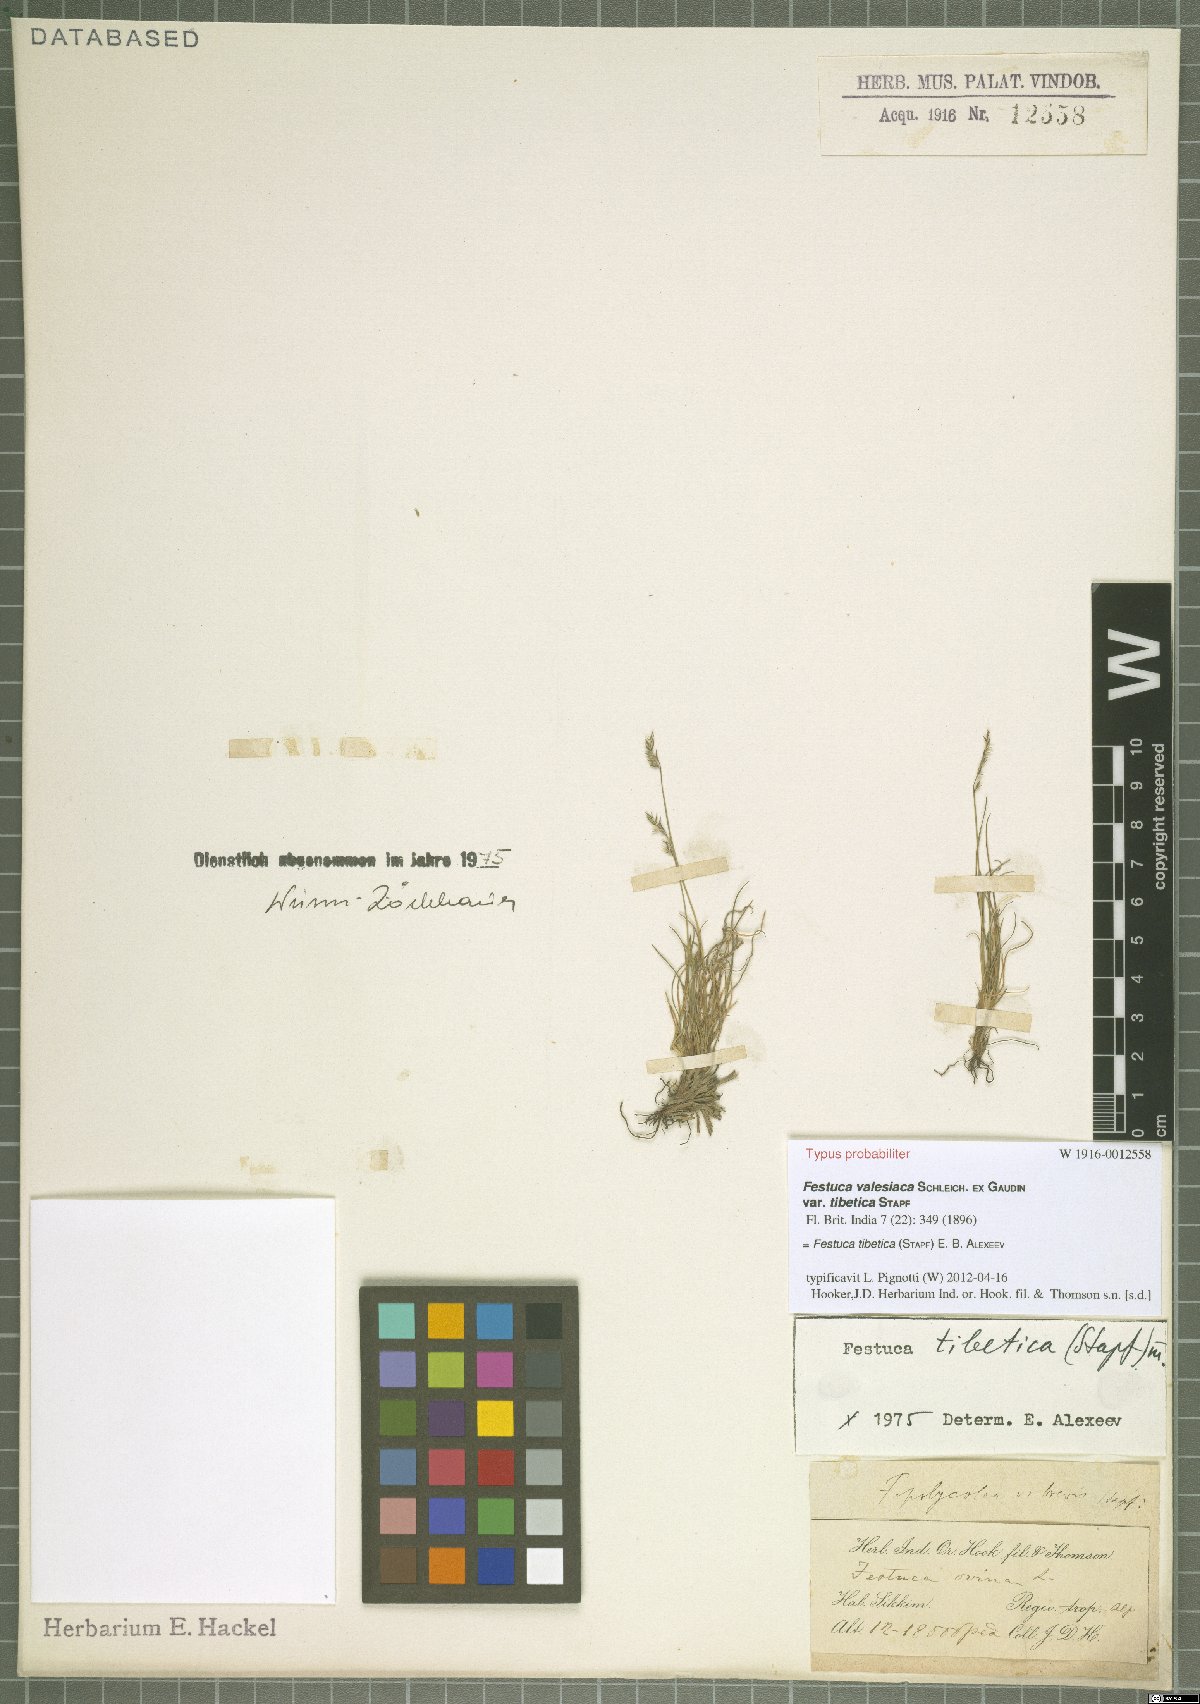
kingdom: Plantae
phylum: Tracheophyta
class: Liliopsida
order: Poales
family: Poaceae
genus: Festuca
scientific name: Festuca tibetica
